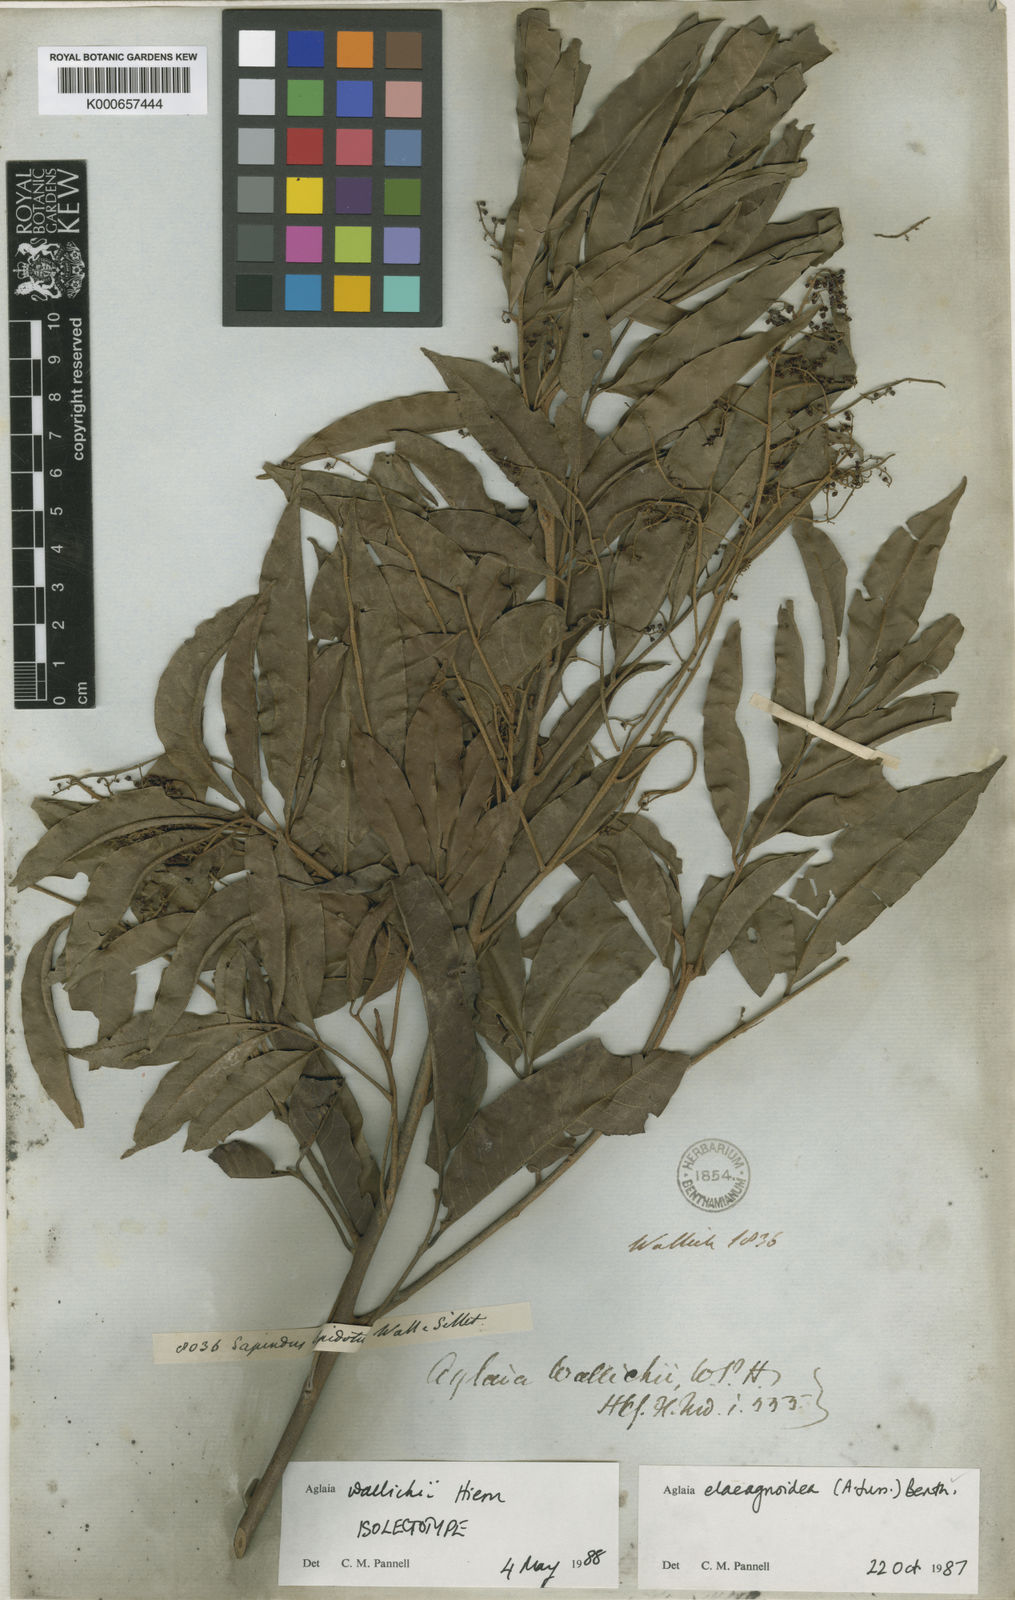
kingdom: Plantae
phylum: Tracheophyta
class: Magnoliopsida
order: Sapindales
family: Meliaceae
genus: Aglaia
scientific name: Aglaia elaeagnoidea
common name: Droopyleaf
